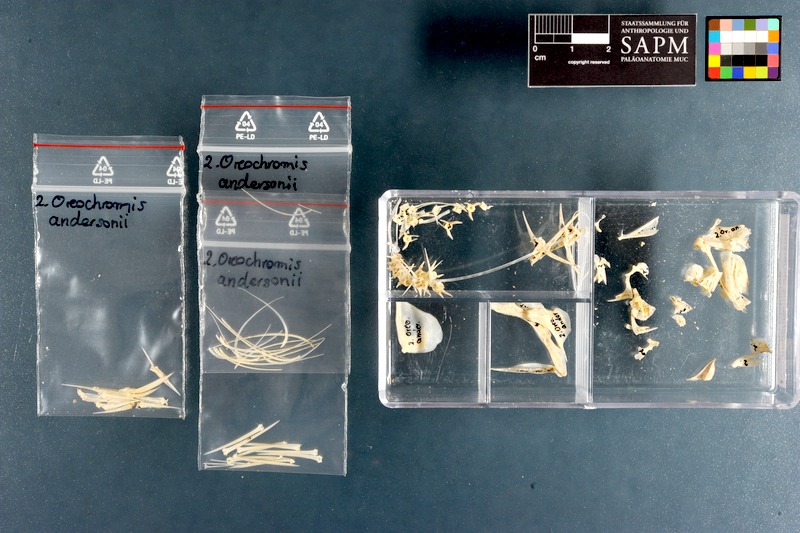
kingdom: Animalia
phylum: Chordata
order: Perciformes
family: Cichlidae
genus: Oreochromis
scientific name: Oreochromis andersonii
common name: Threespot tilapia
